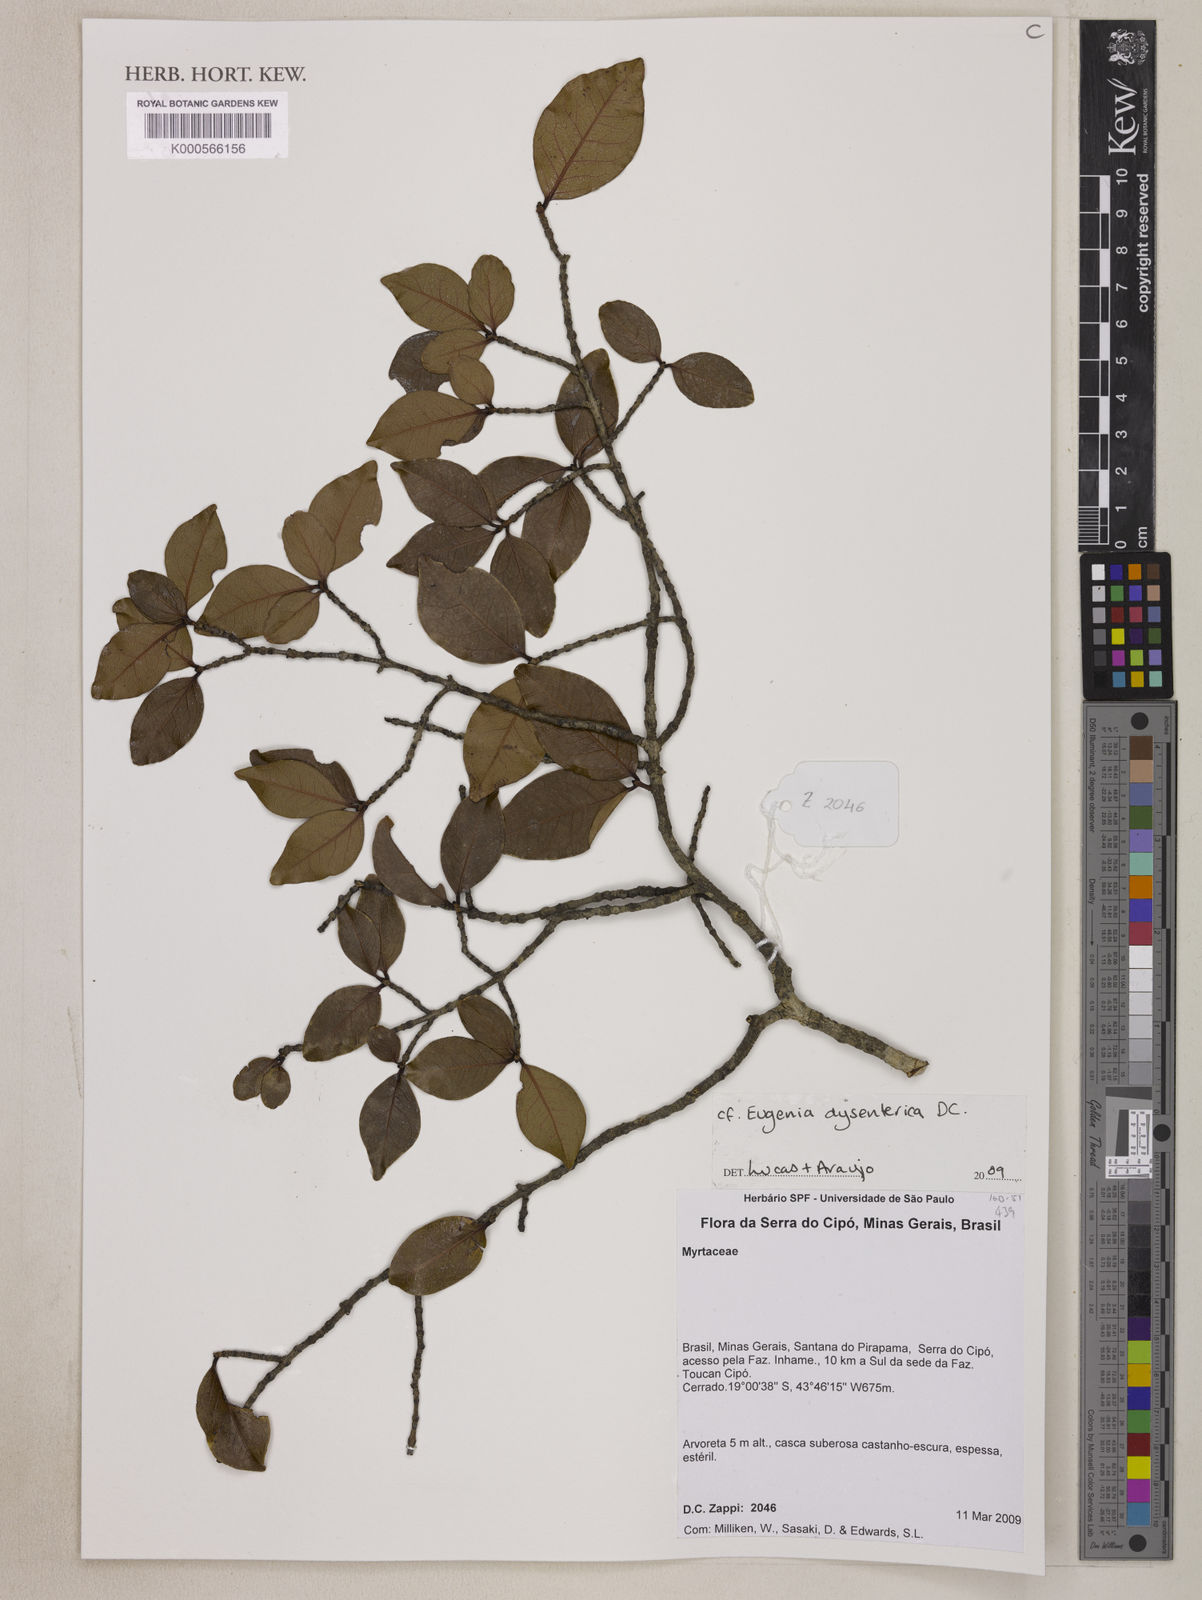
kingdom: Plantae
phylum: Tracheophyta
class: Magnoliopsida
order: Myrtales
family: Myrtaceae
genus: Eugenia
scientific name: Eugenia dysenterica
